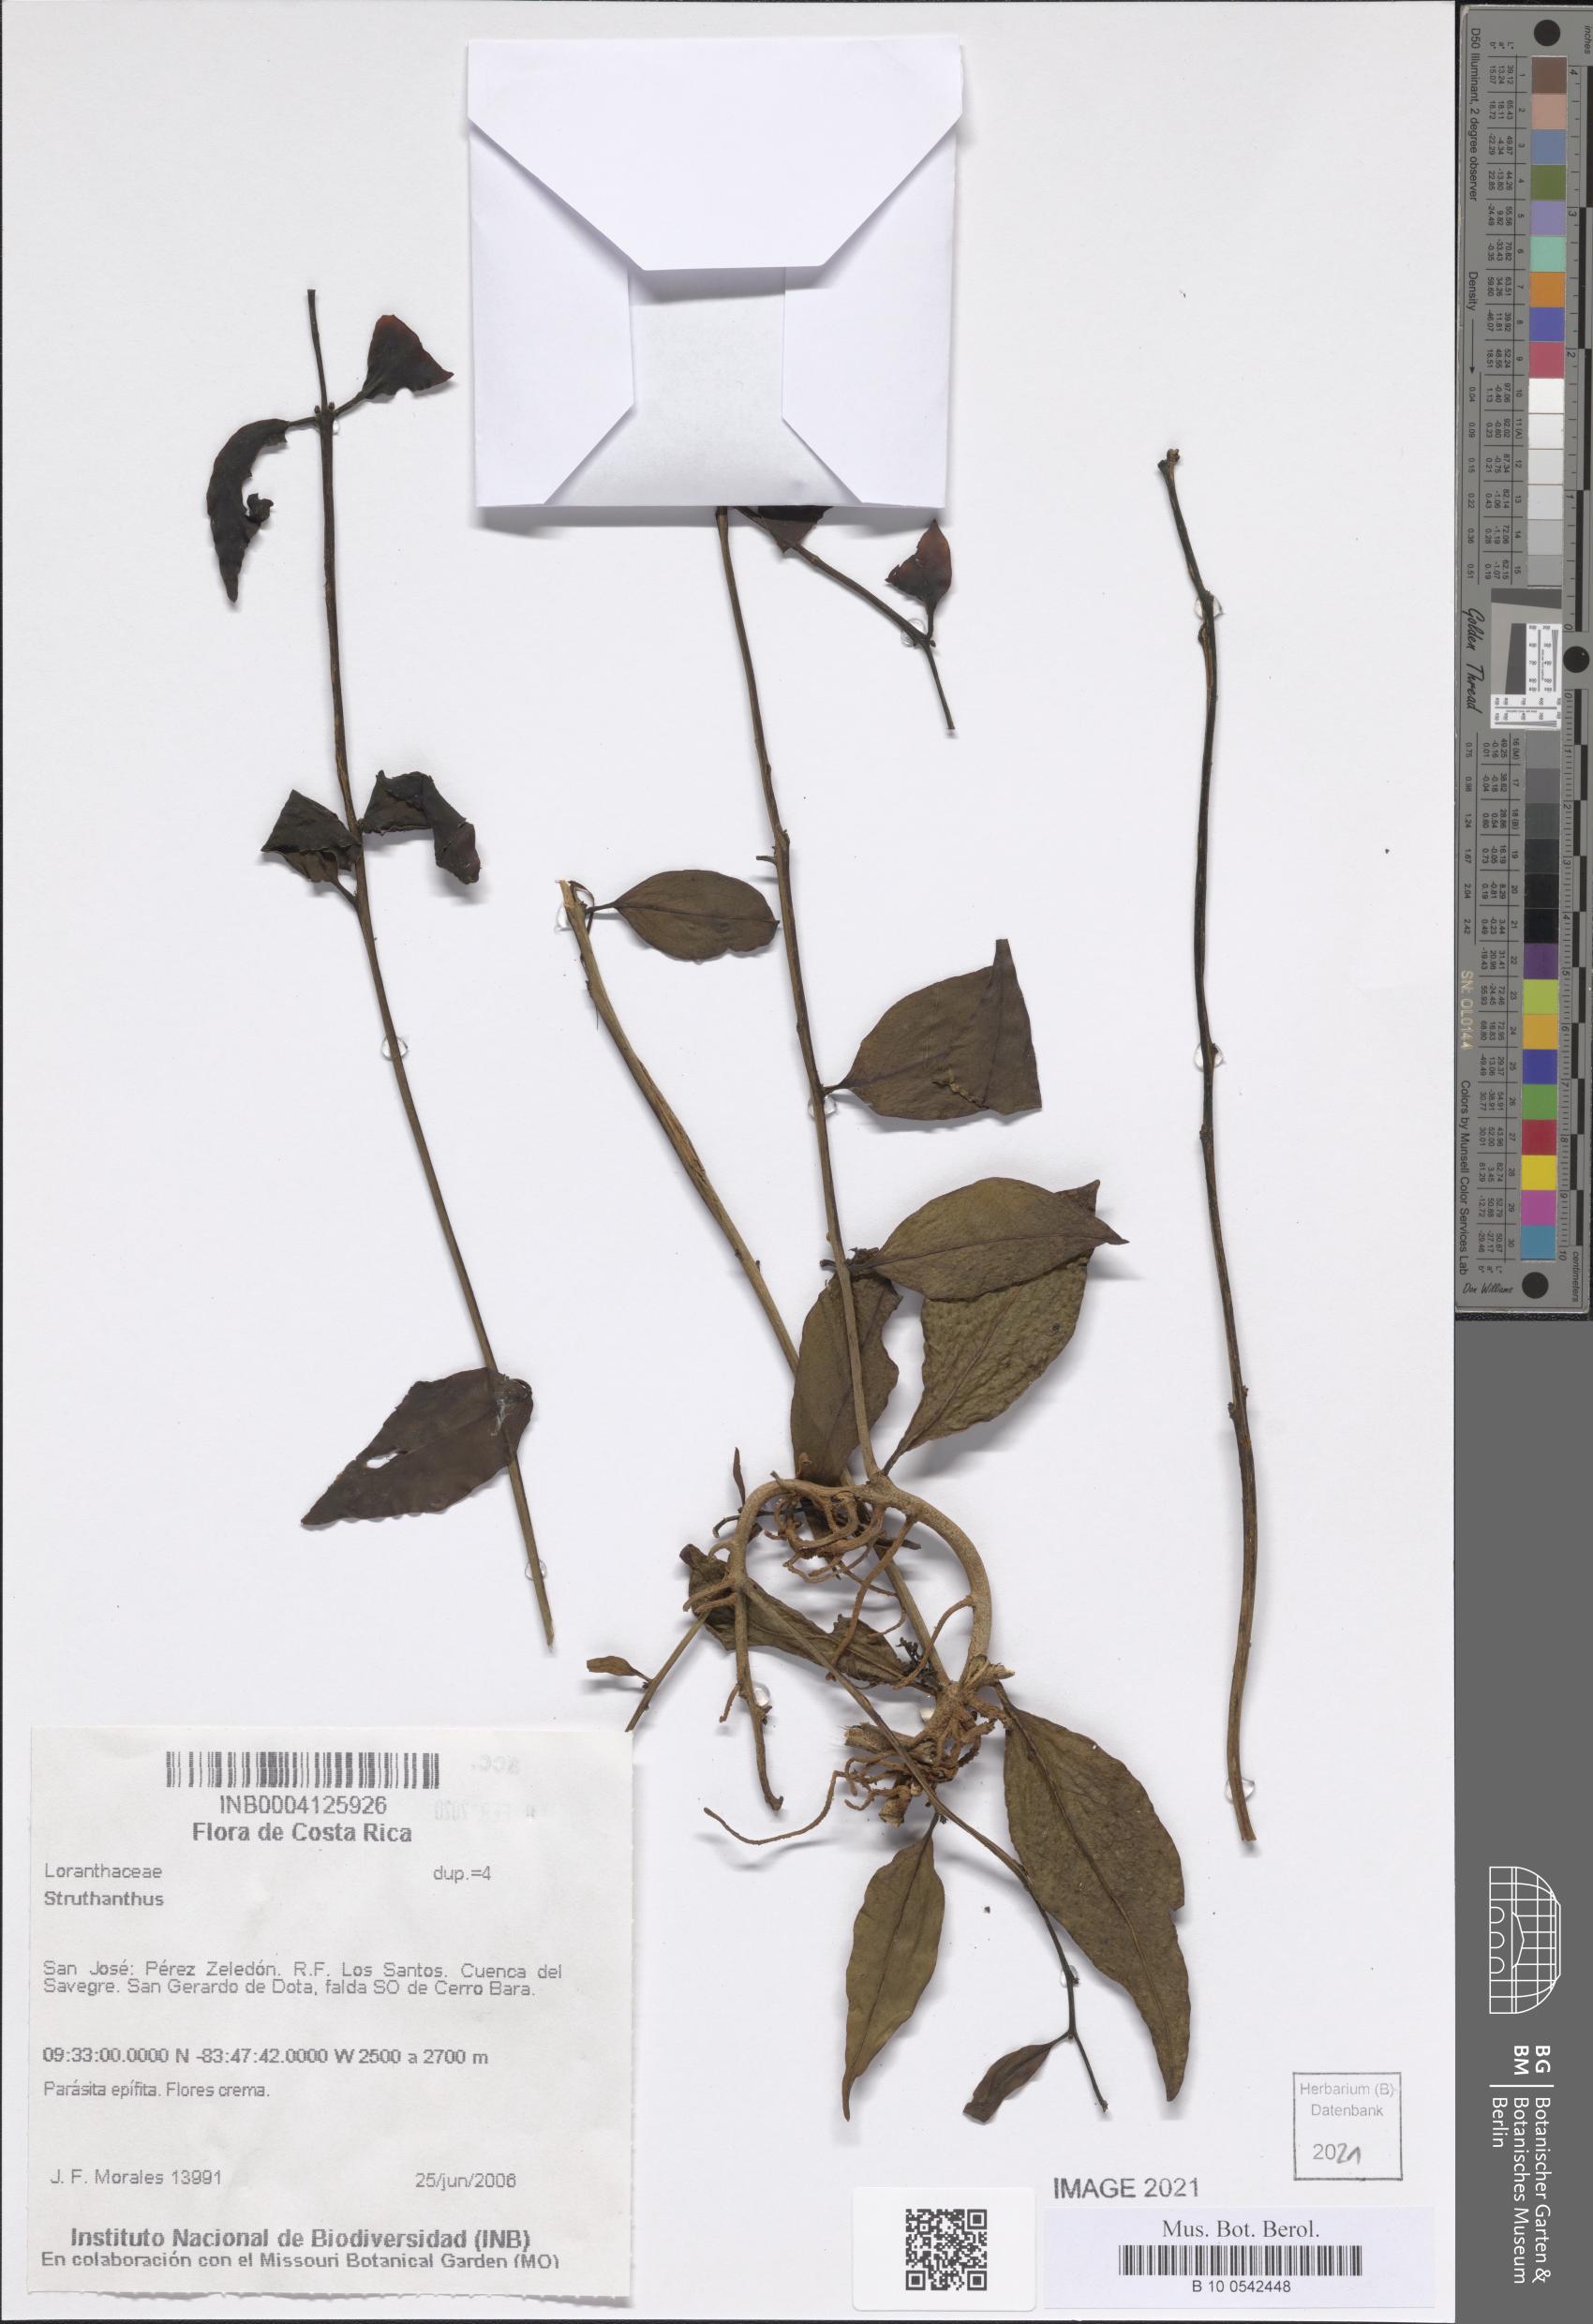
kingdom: Plantae
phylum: Tracheophyta
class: Magnoliopsida
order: Santalales
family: Loranthaceae
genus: Struthanthus
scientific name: Struthanthus
